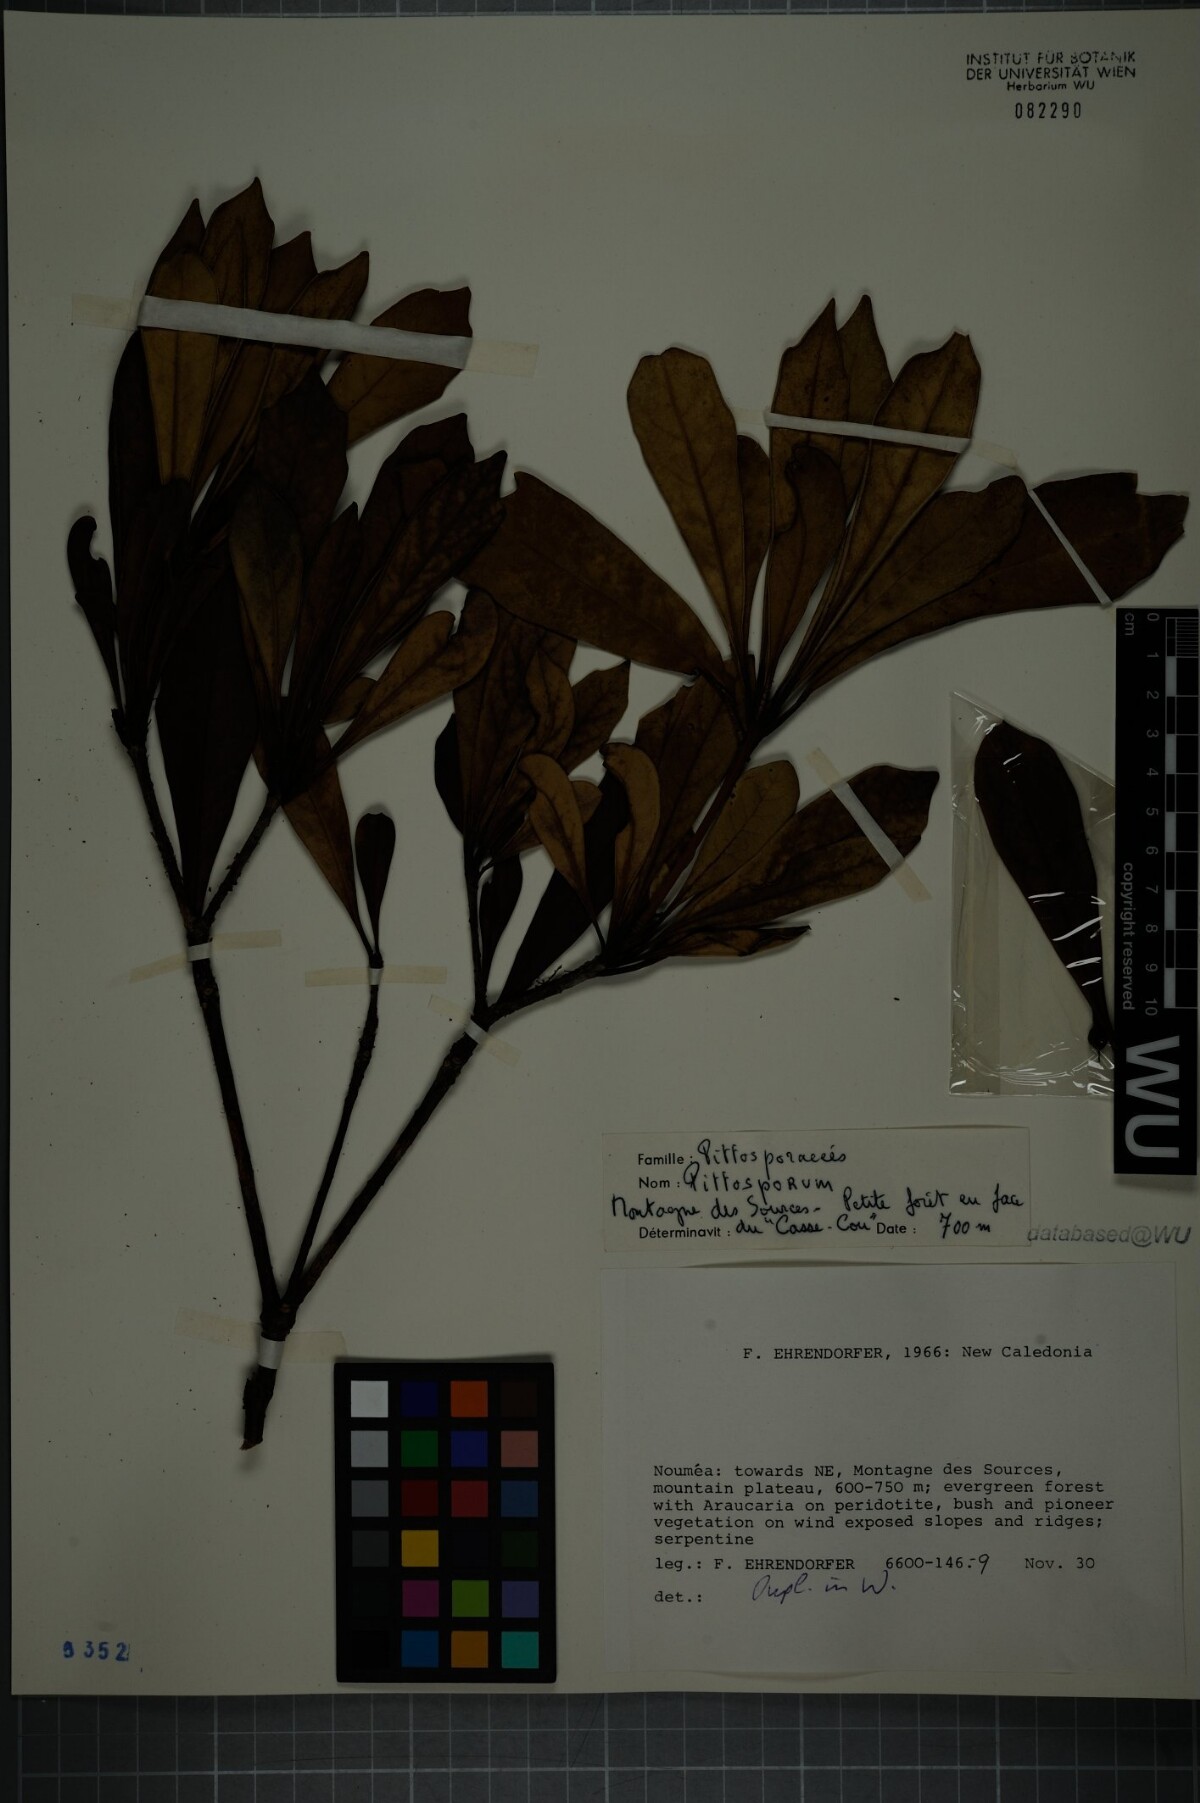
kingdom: Plantae
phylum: Tracheophyta
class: Magnoliopsida
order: Apiales
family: Pittosporaceae
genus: Pittosporum
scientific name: Pittosporum
